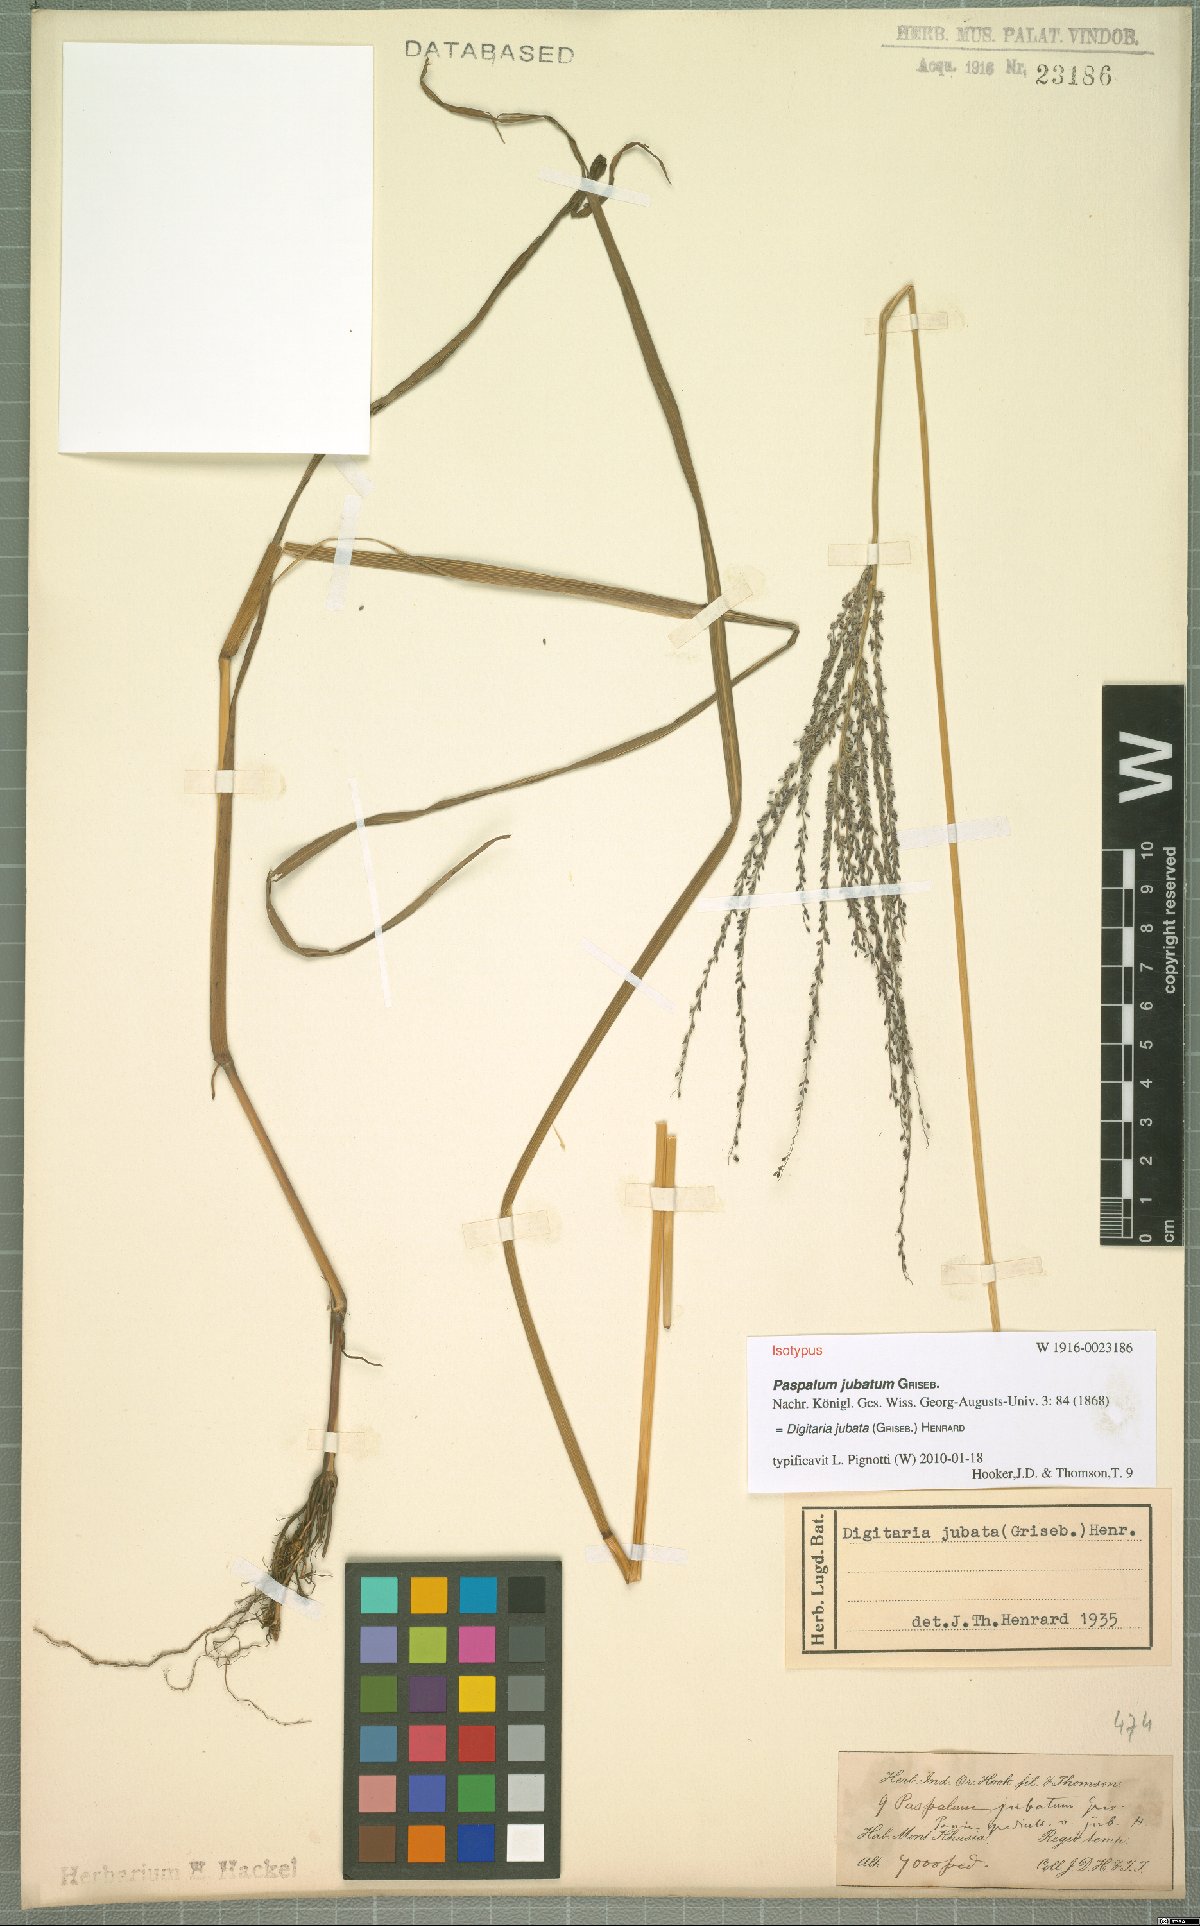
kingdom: Plantae
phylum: Tracheophyta
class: Liliopsida
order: Poales
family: Poaceae
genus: Digitaria
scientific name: Digitaria jubata
